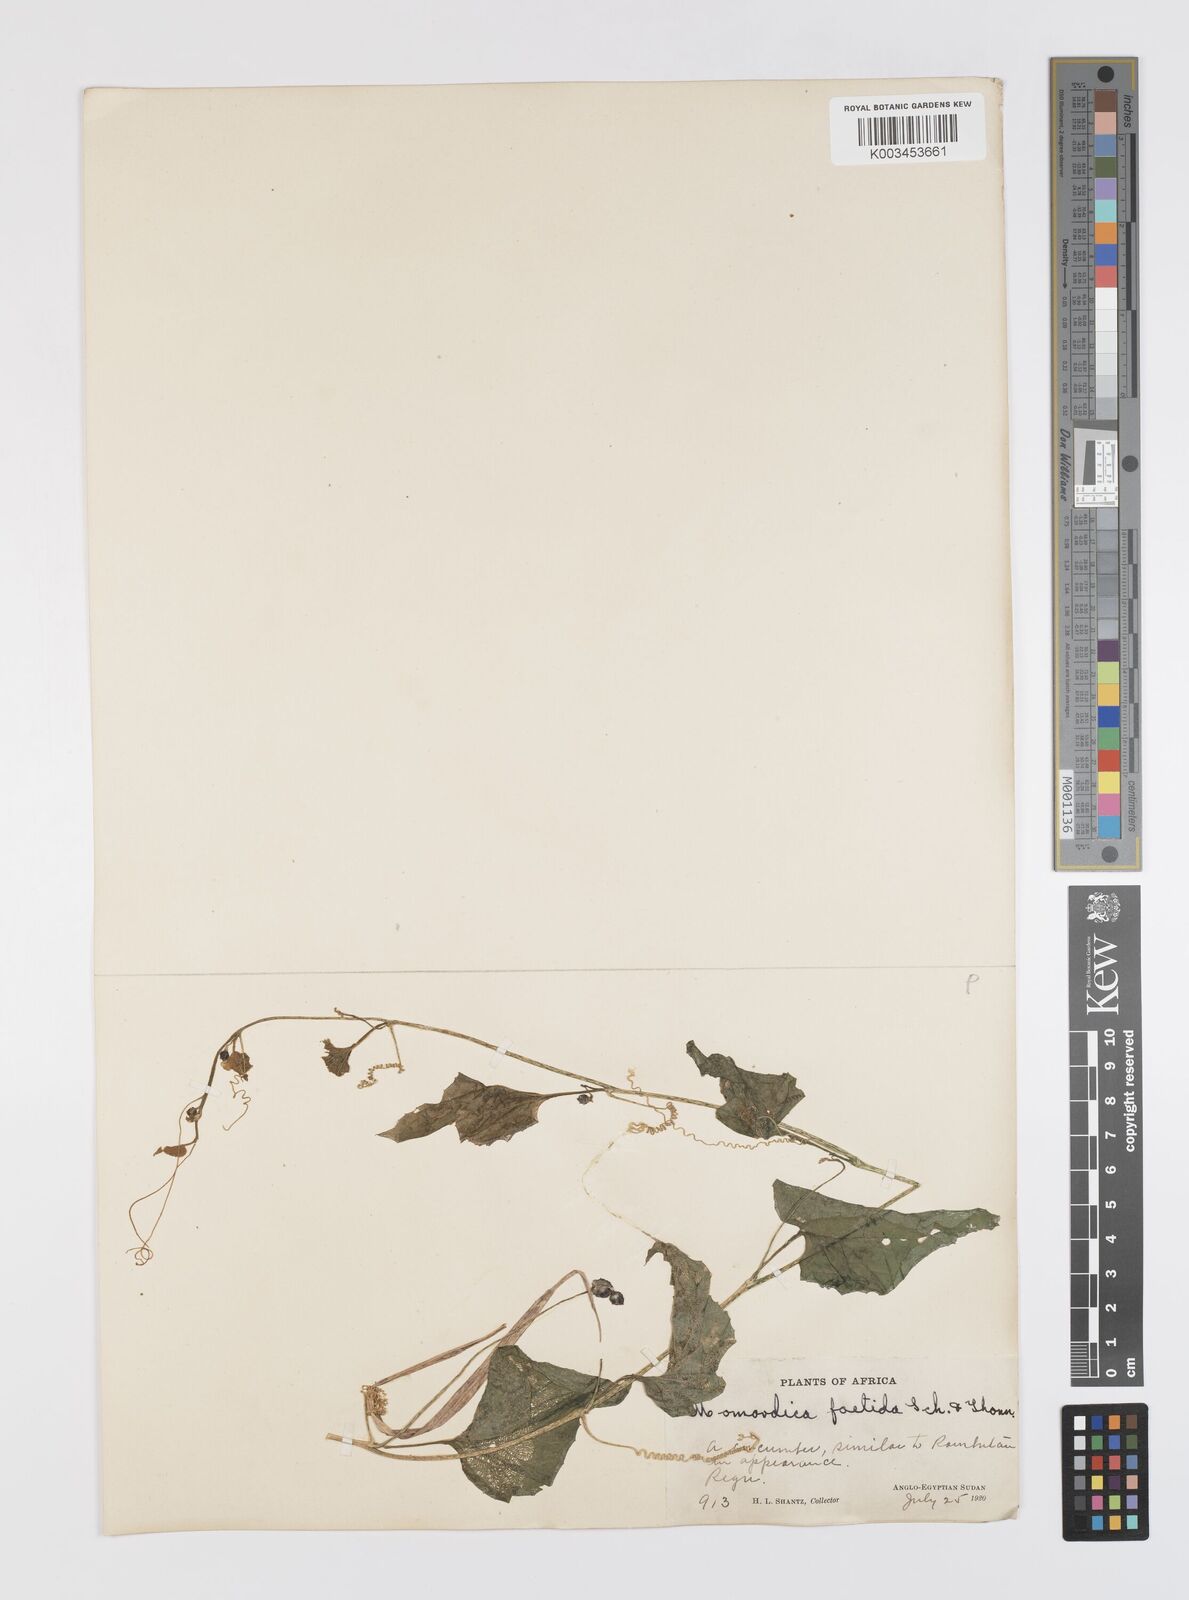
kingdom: Plantae
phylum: Tracheophyta
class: Magnoliopsida
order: Cucurbitales
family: Cucurbitaceae
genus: Momordica
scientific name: Momordica foetida
